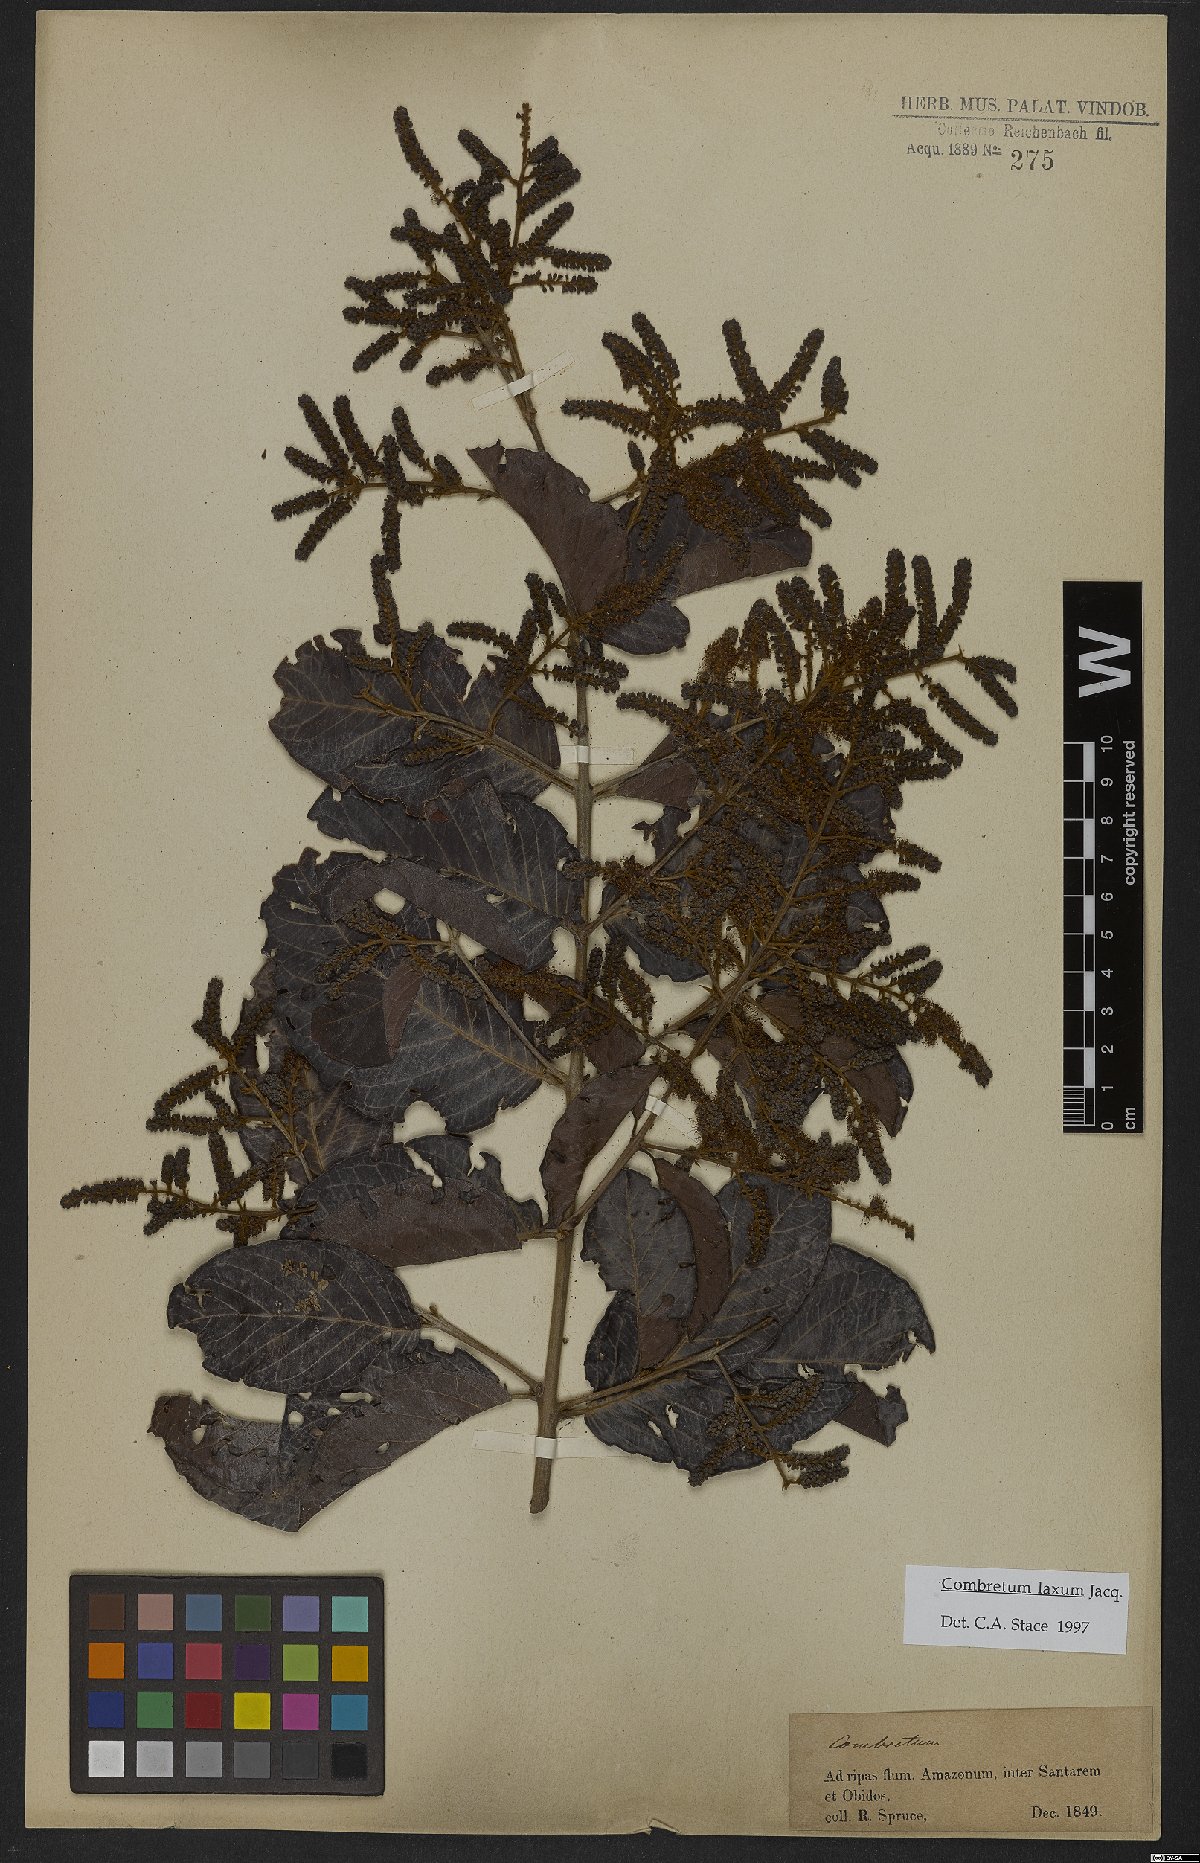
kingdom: Plantae
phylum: Tracheophyta
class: Magnoliopsida
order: Myrtales
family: Combretaceae
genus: Combretum
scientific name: Combretum laxum
